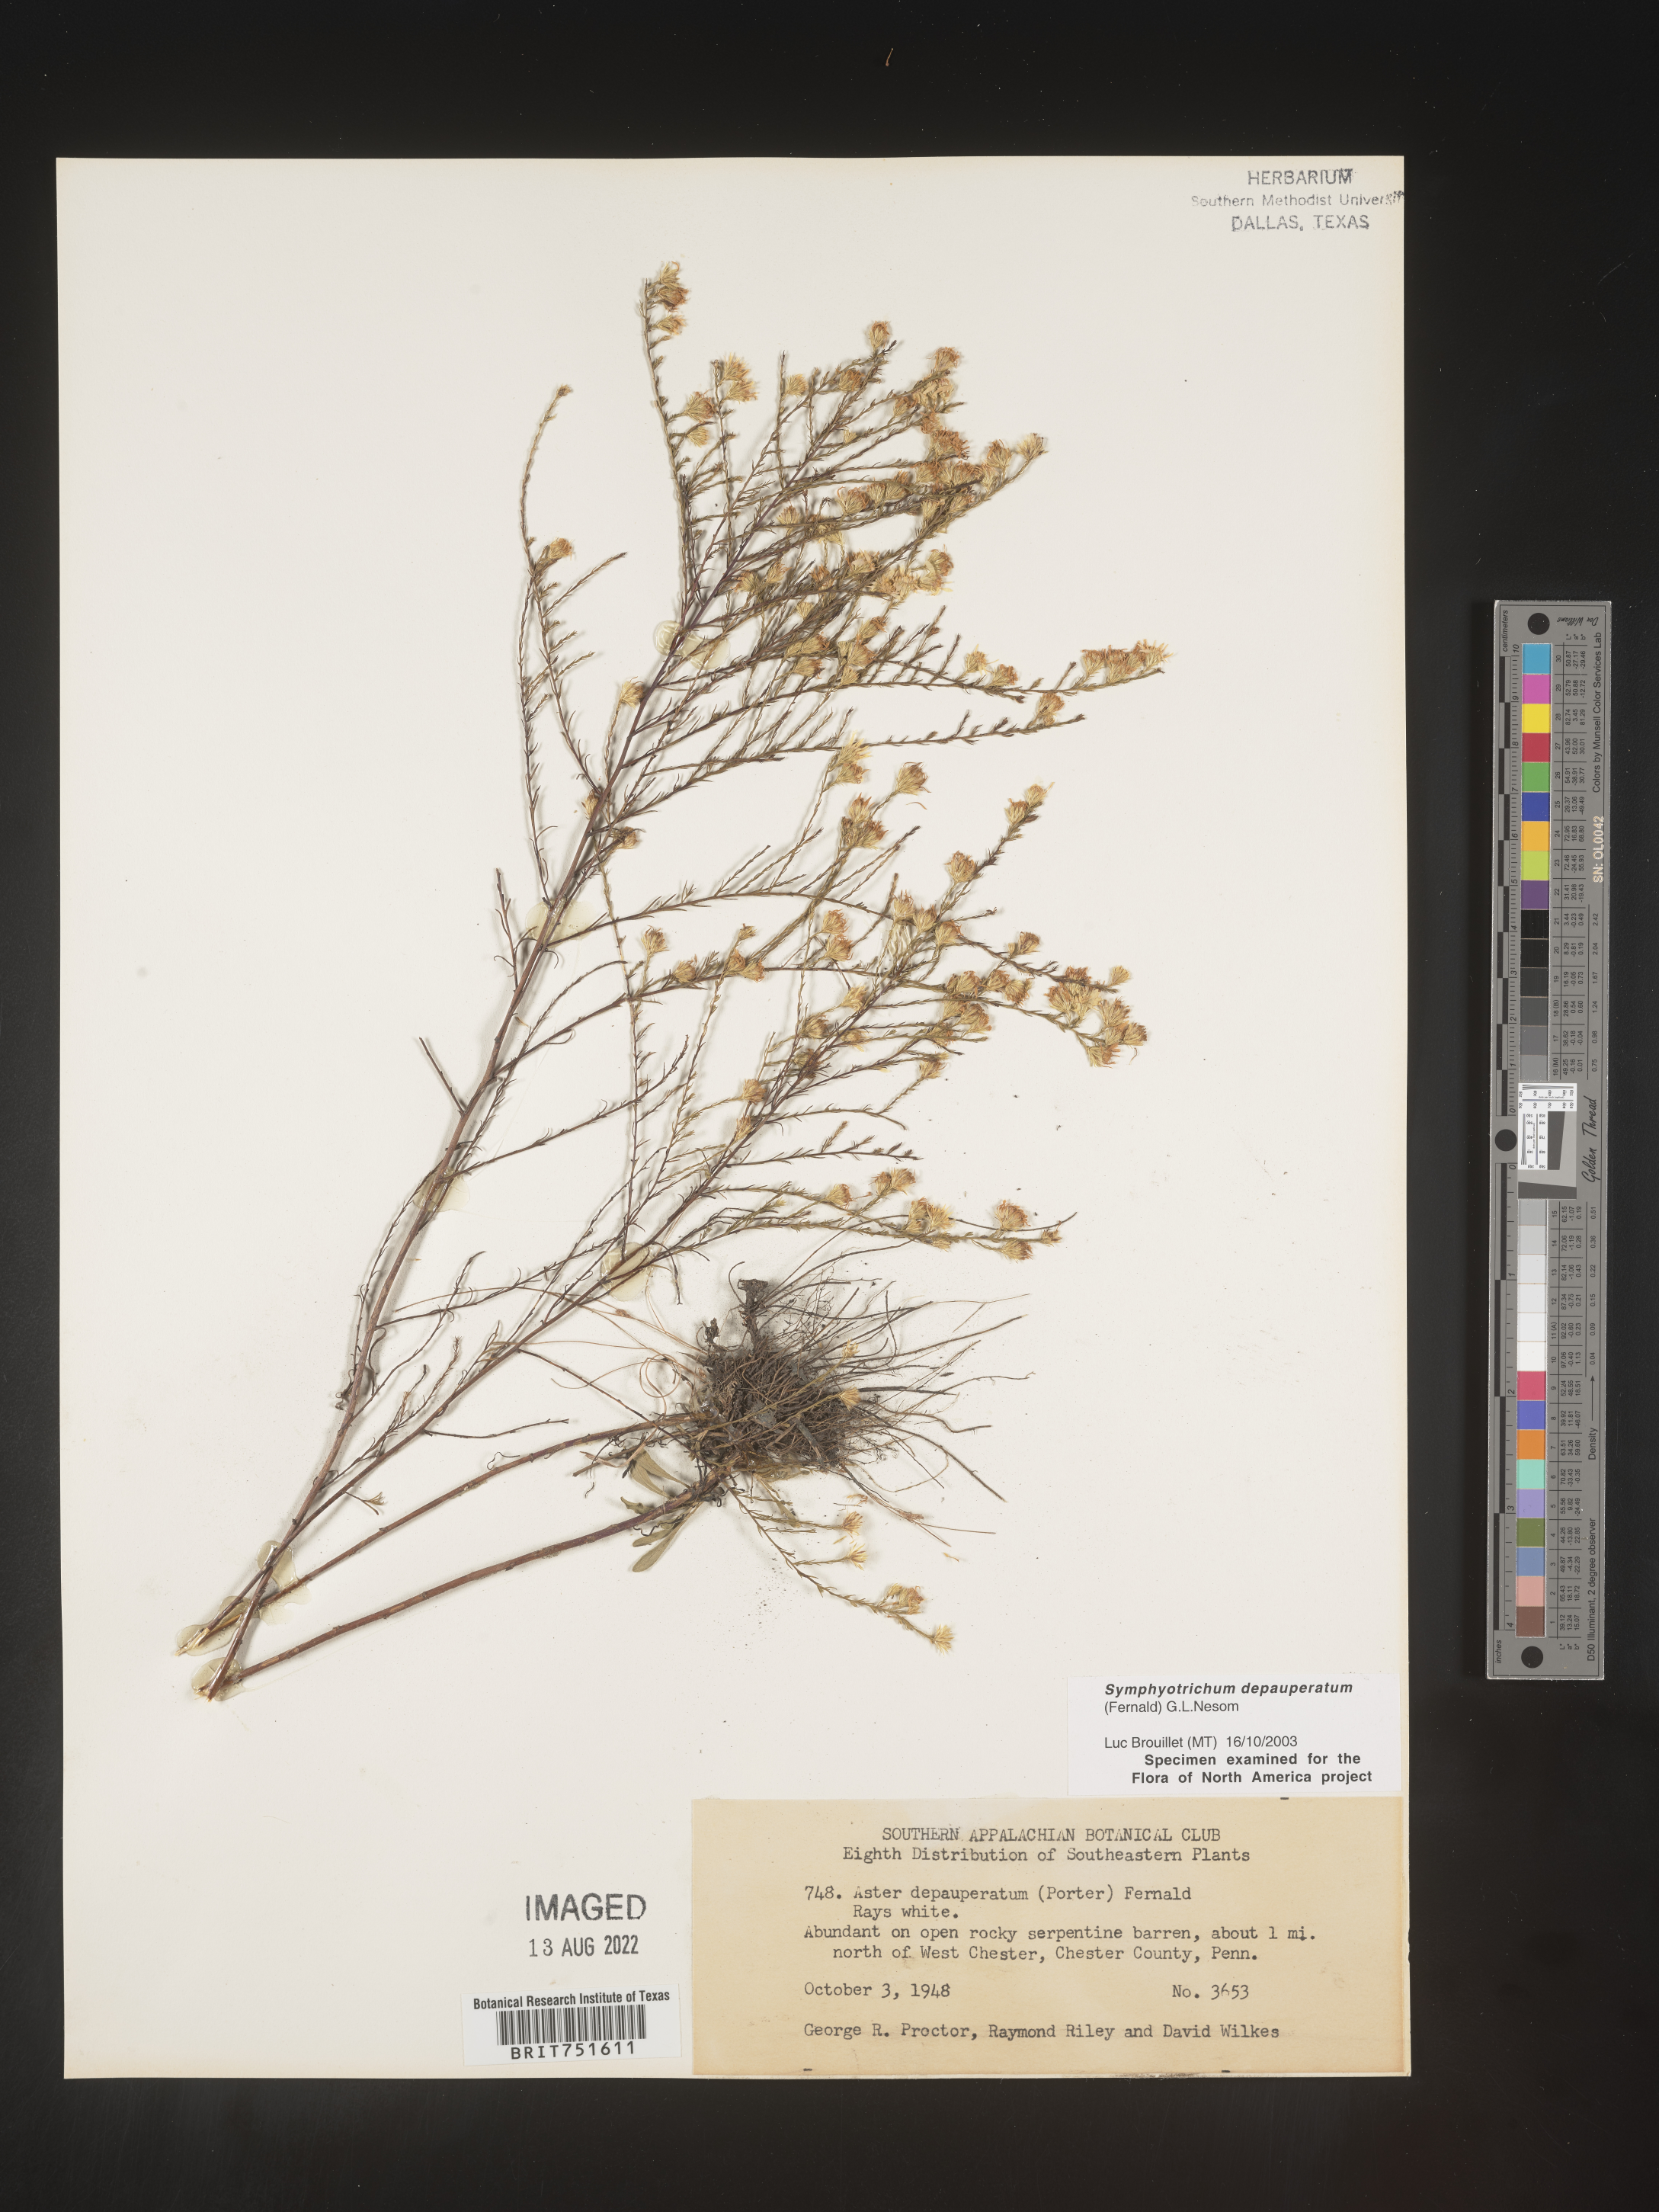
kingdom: Plantae
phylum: Tracheophyta
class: Magnoliopsida
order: Asterales
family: Asteraceae
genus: Symphyotrichum
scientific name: Symphyotrichum depauperatum
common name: Serpentine aster
